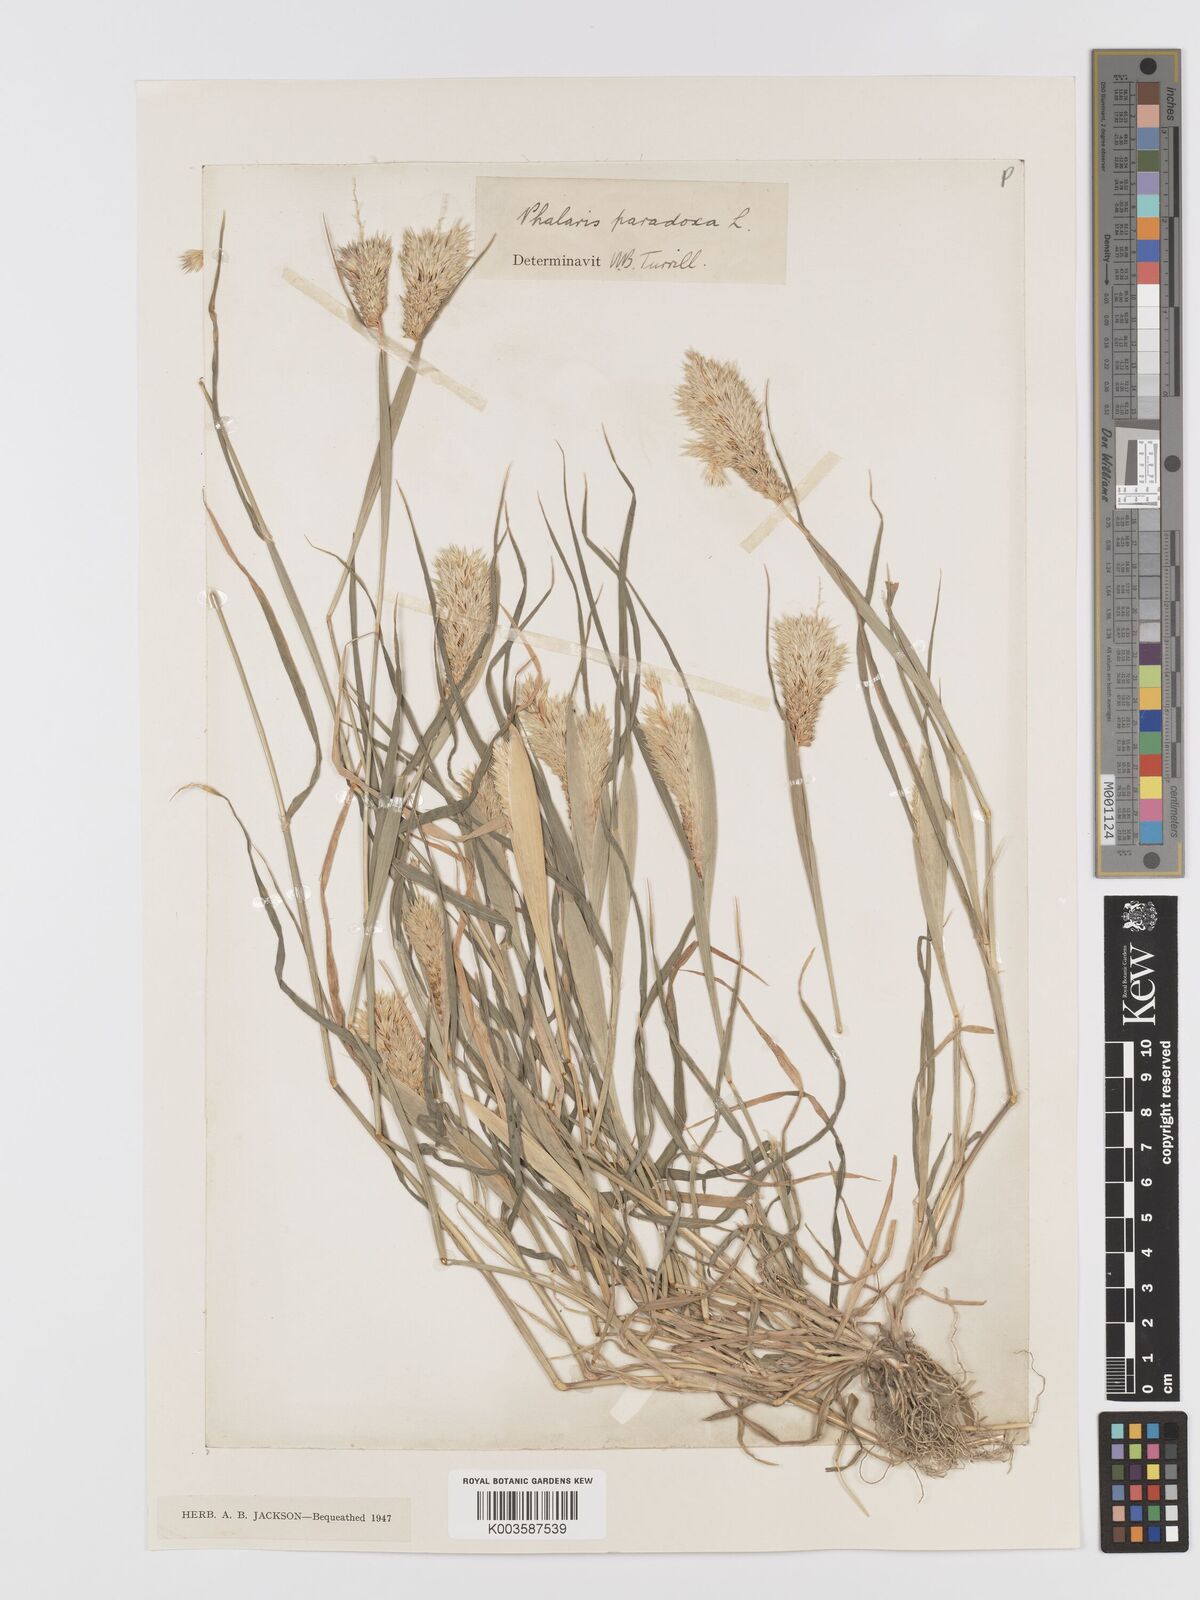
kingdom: Plantae
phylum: Tracheophyta
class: Liliopsida
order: Poales
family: Poaceae
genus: Phalaris
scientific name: Phalaris paradoxa
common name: Awned canary-grass
